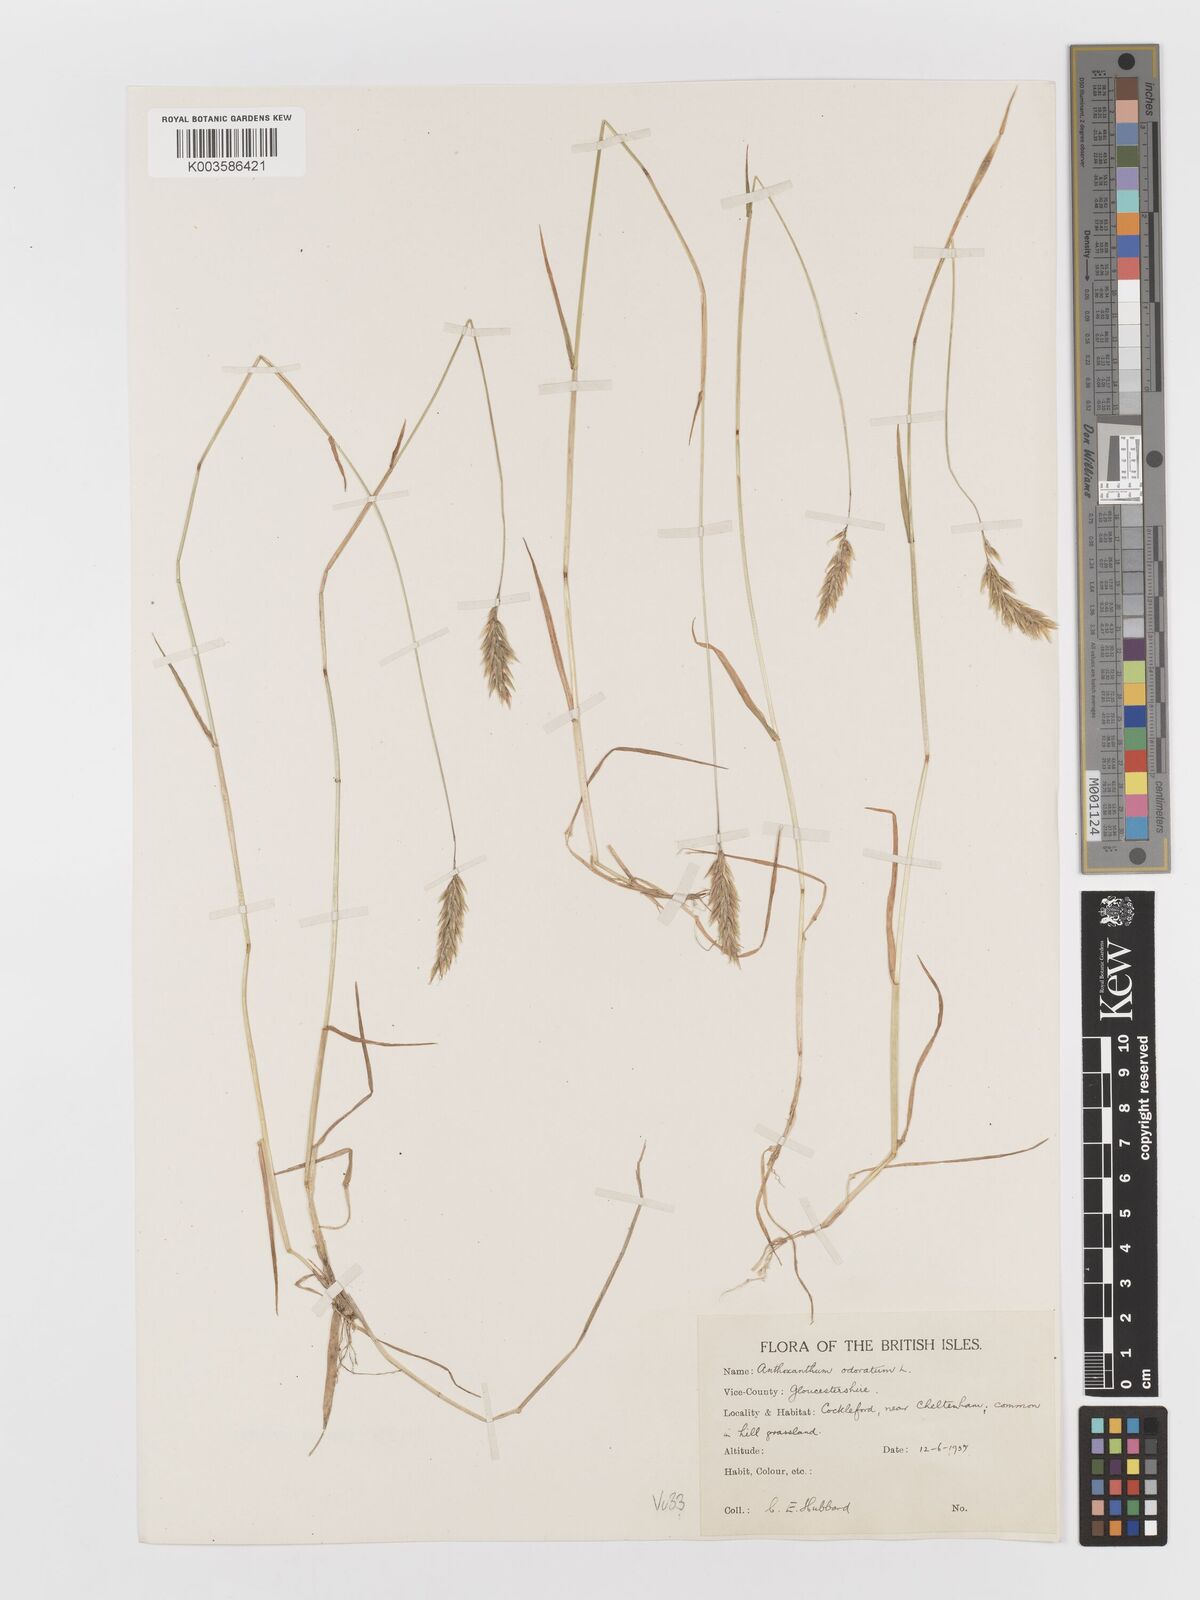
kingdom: Plantae
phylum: Tracheophyta
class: Liliopsida
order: Poales
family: Poaceae
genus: Anthoxanthum
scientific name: Anthoxanthum odoratum
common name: Sweet vernalgrass
